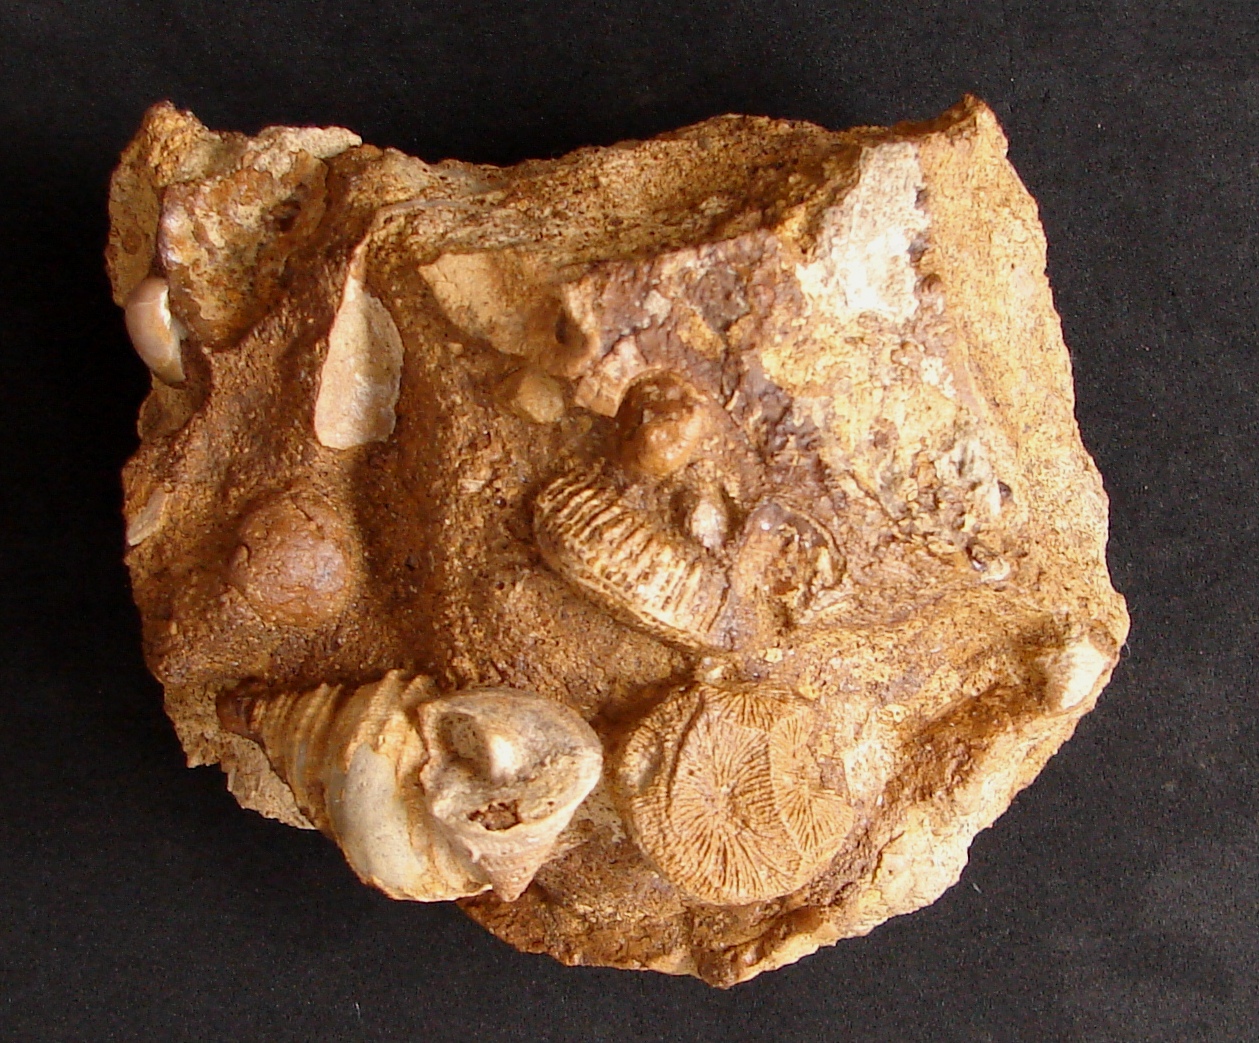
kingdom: Animalia
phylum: Mollusca
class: Gastropoda
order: Pleurotomariida
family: Pleurotomariidae
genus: Pyrgotrochus
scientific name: Pyrgotrochus elongatus
